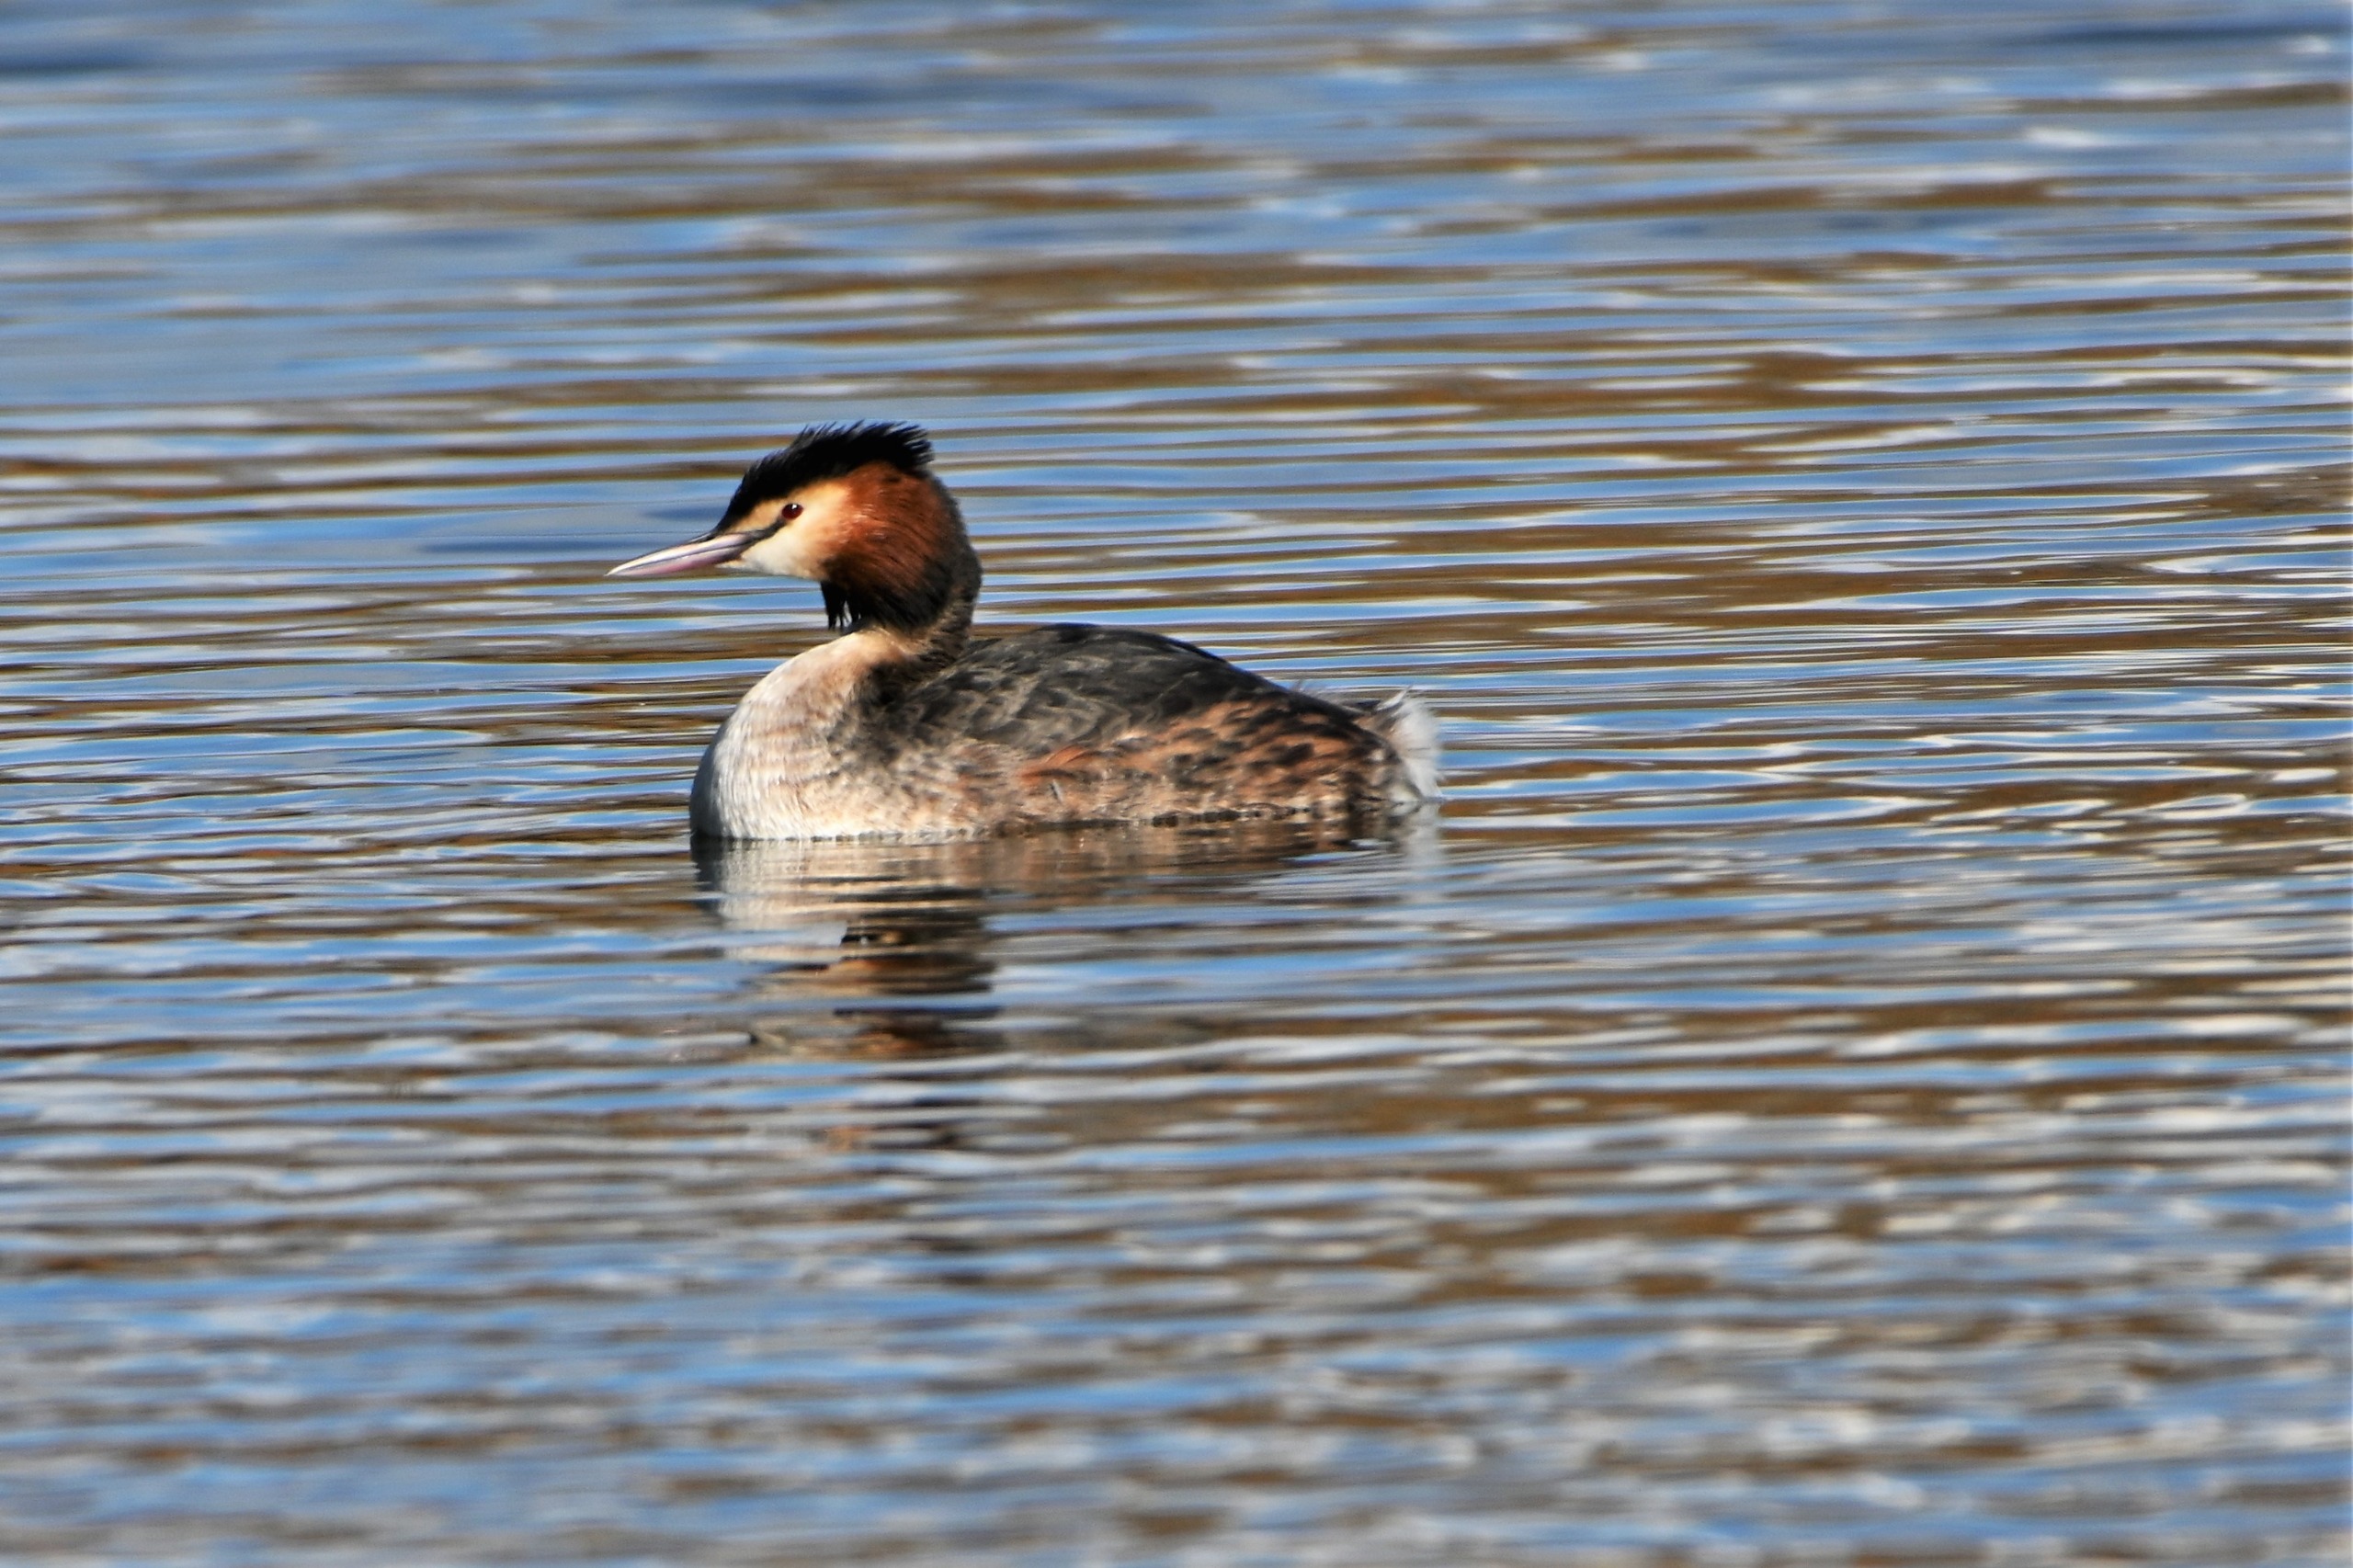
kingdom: Animalia
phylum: Chordata
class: Aves
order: Podicipediformes
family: Podicipedidae
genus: Podiceps
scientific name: Podiceps cristatus
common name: Toppet lappedykker
